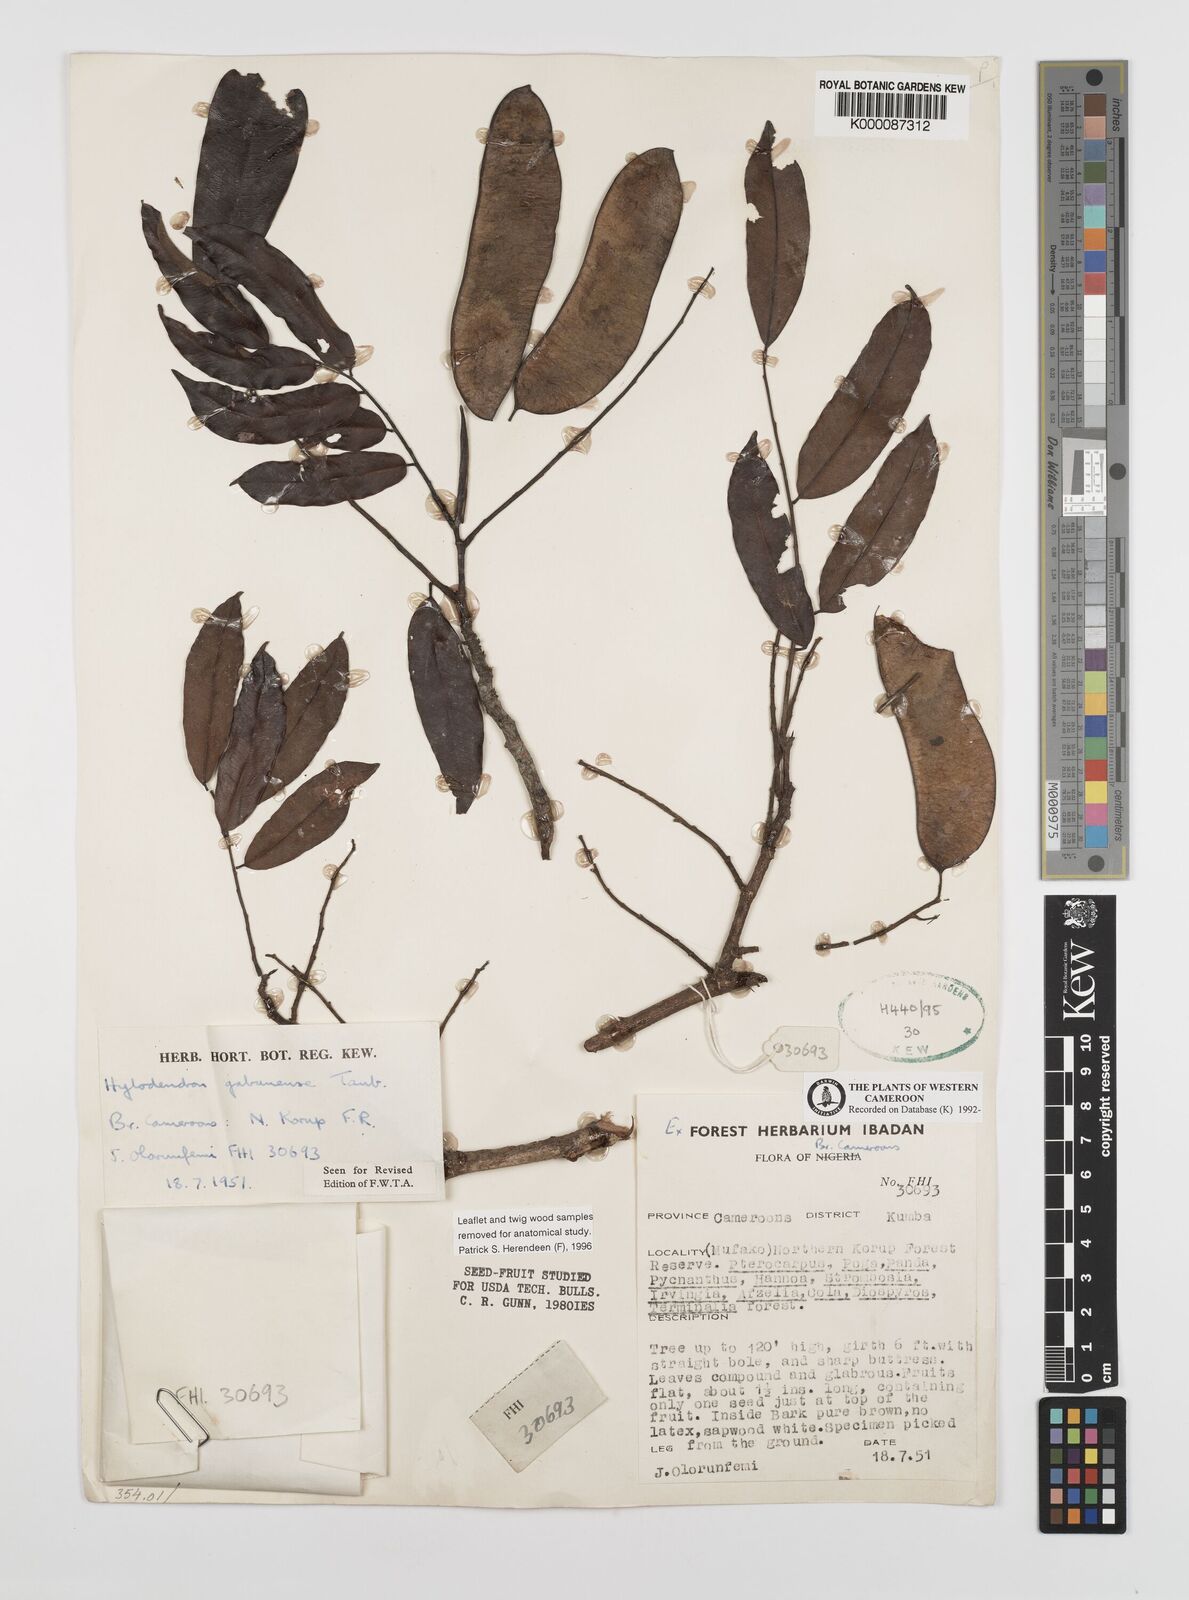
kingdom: Plantae
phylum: Tracheophyta
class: Magnoliopsida
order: Fabales
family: Fabaceae
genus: Hylodendron
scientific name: Hylodendron gabunense
